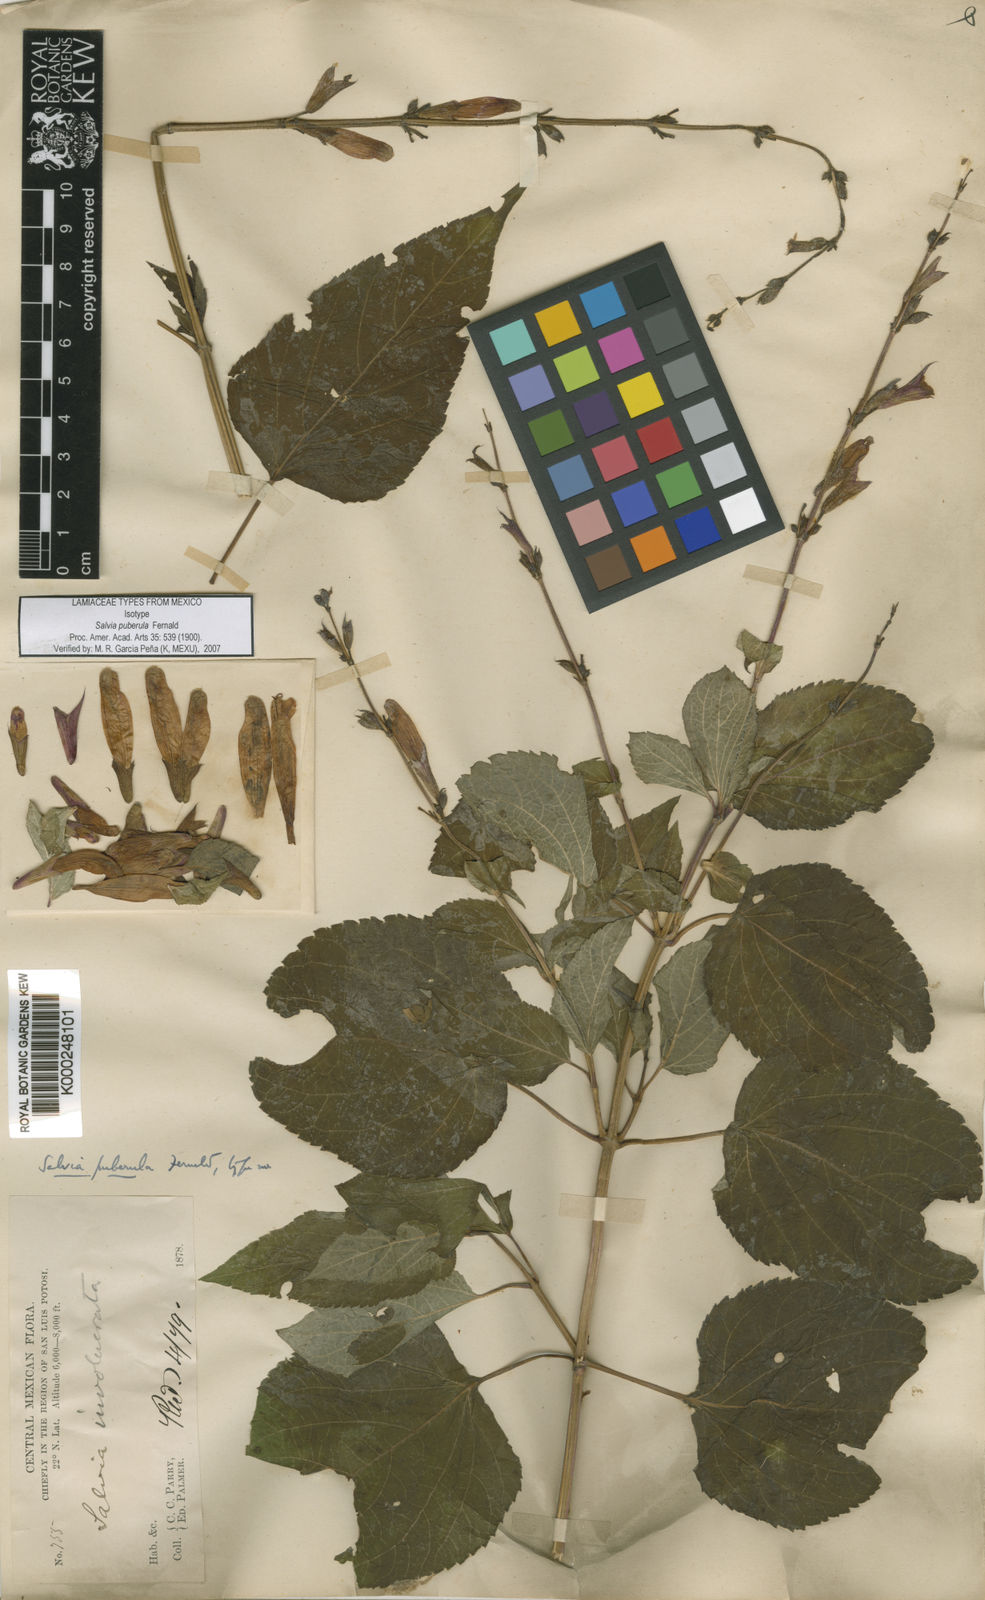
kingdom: Plantae
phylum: Tracheophyta
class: Magnoliopsida
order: Lamiales
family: Lamiaceae
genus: Salvia
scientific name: Salvia puberula
